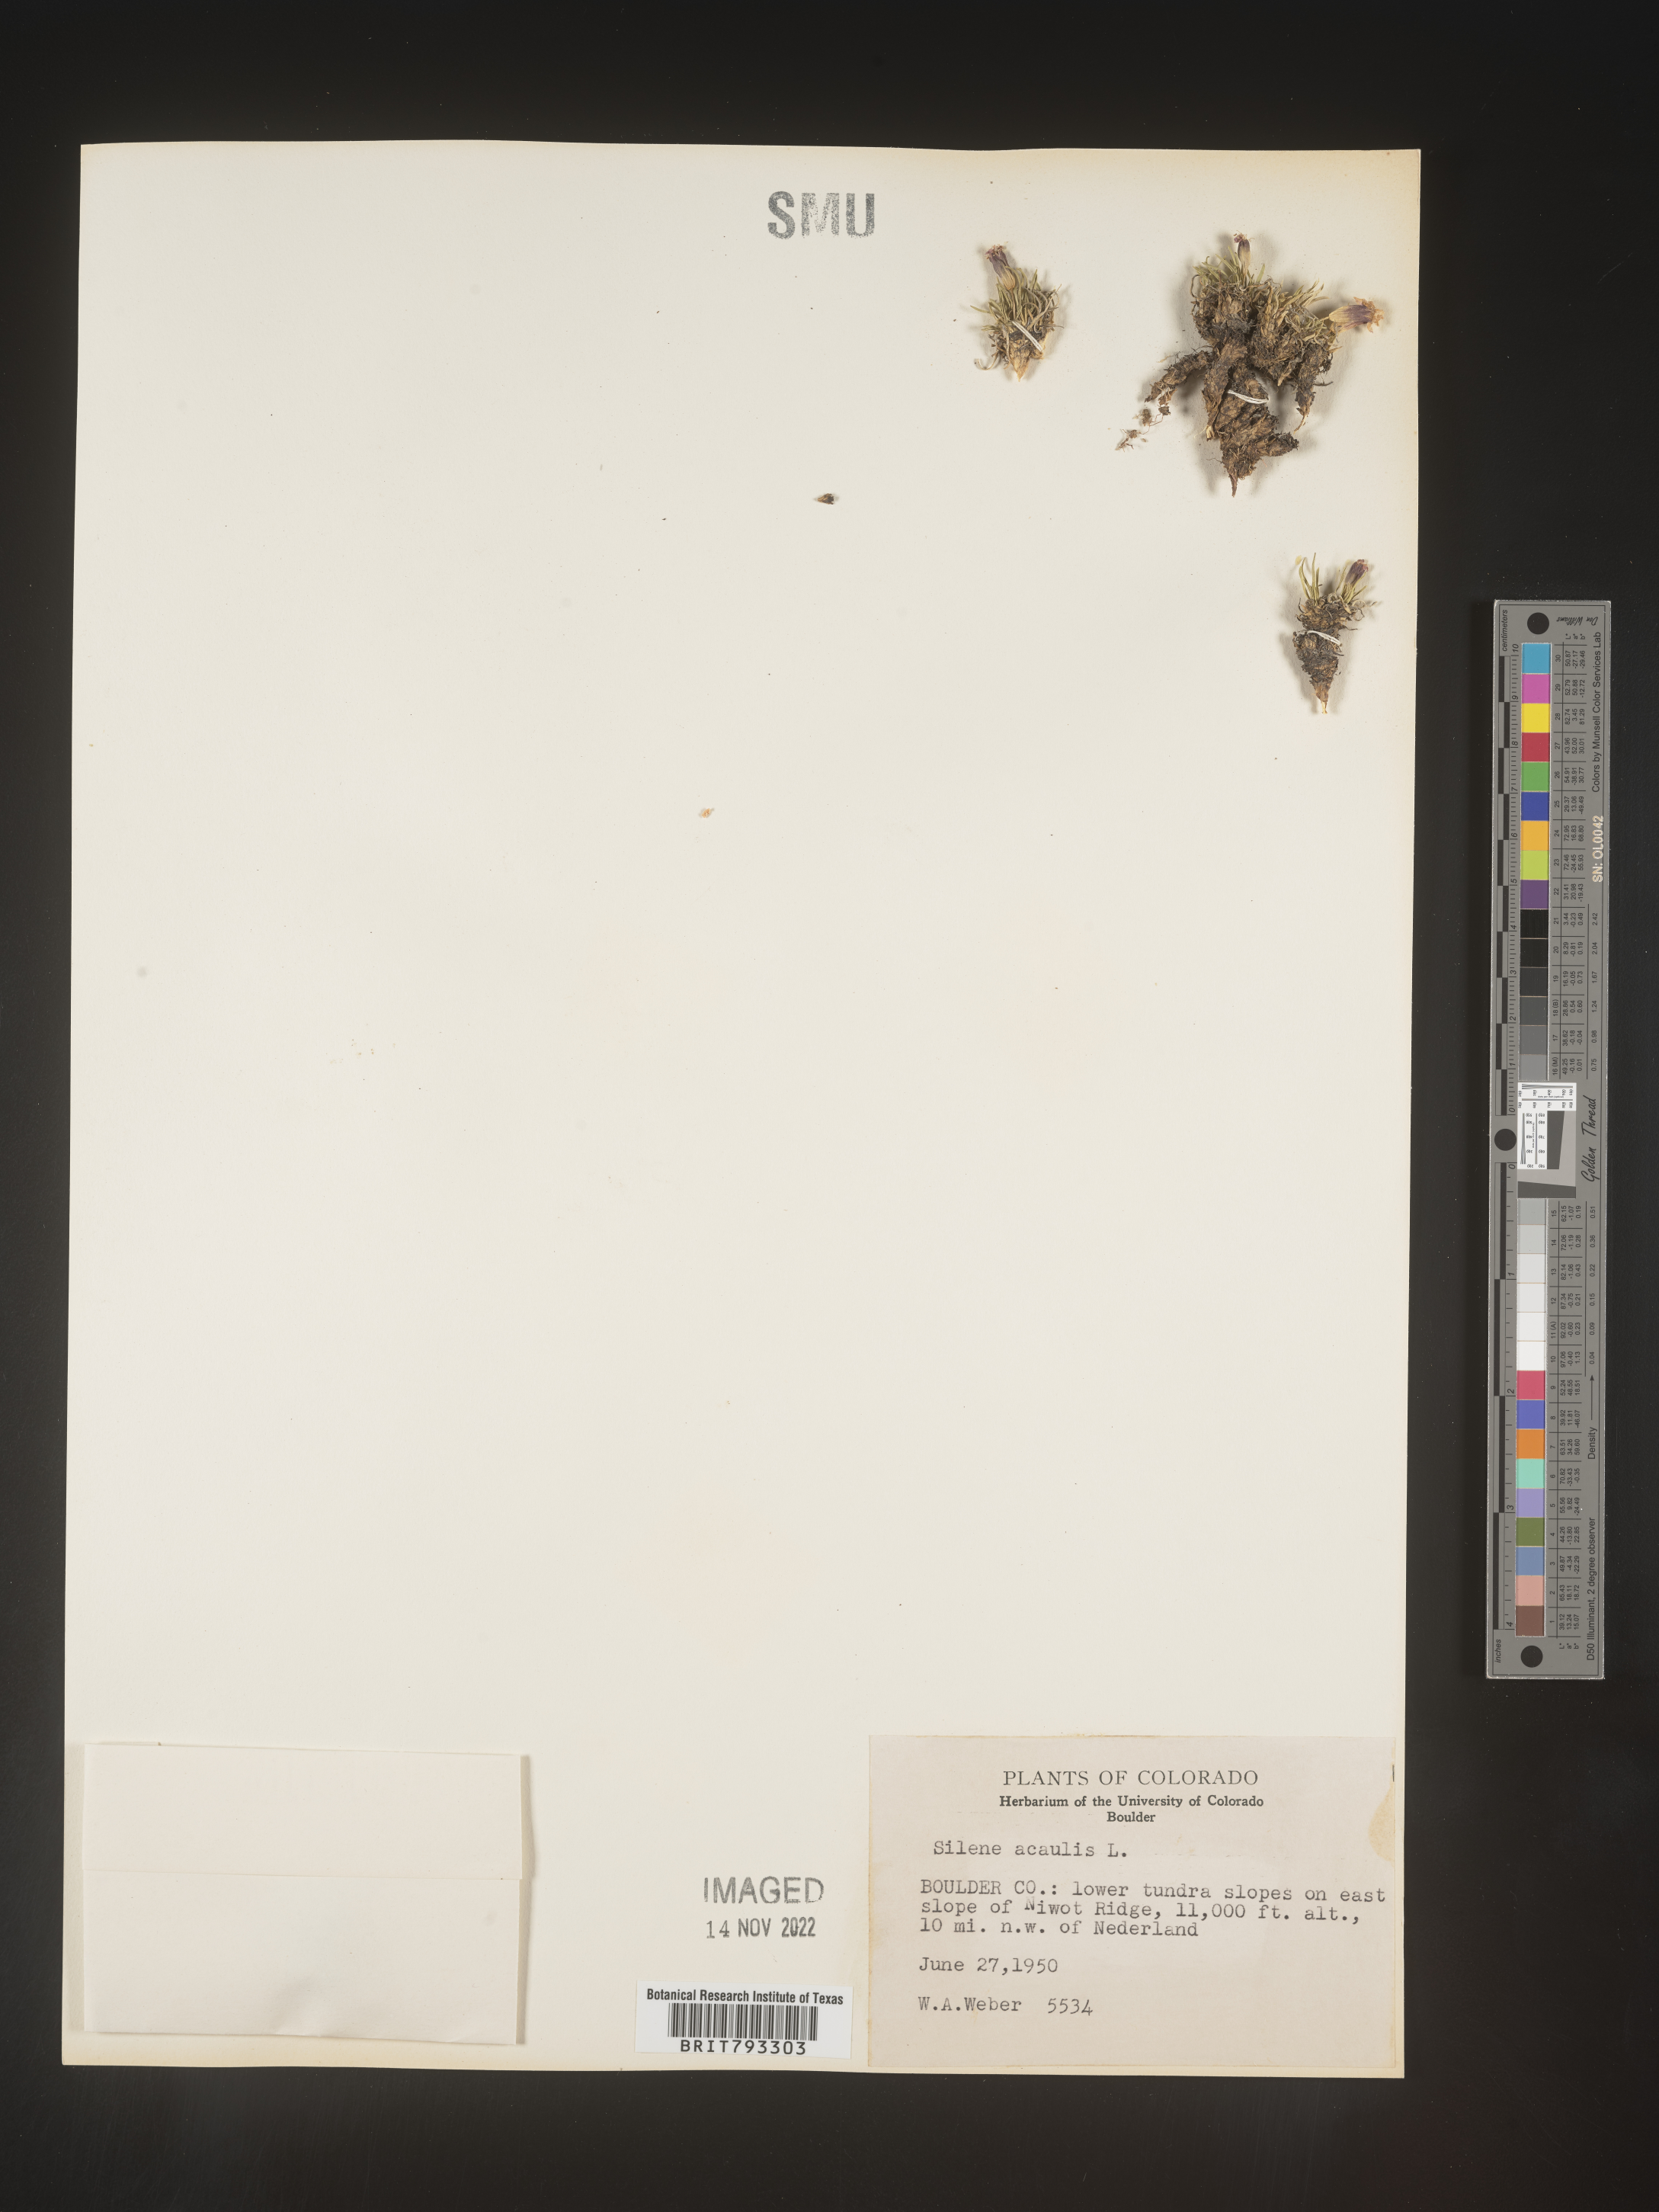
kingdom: Plantae
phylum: Tracheophyta
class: Magnoliopsida
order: Caryophyllales
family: Caryophyllaceae
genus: Silene
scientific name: Silene acaulis
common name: Moss campion
